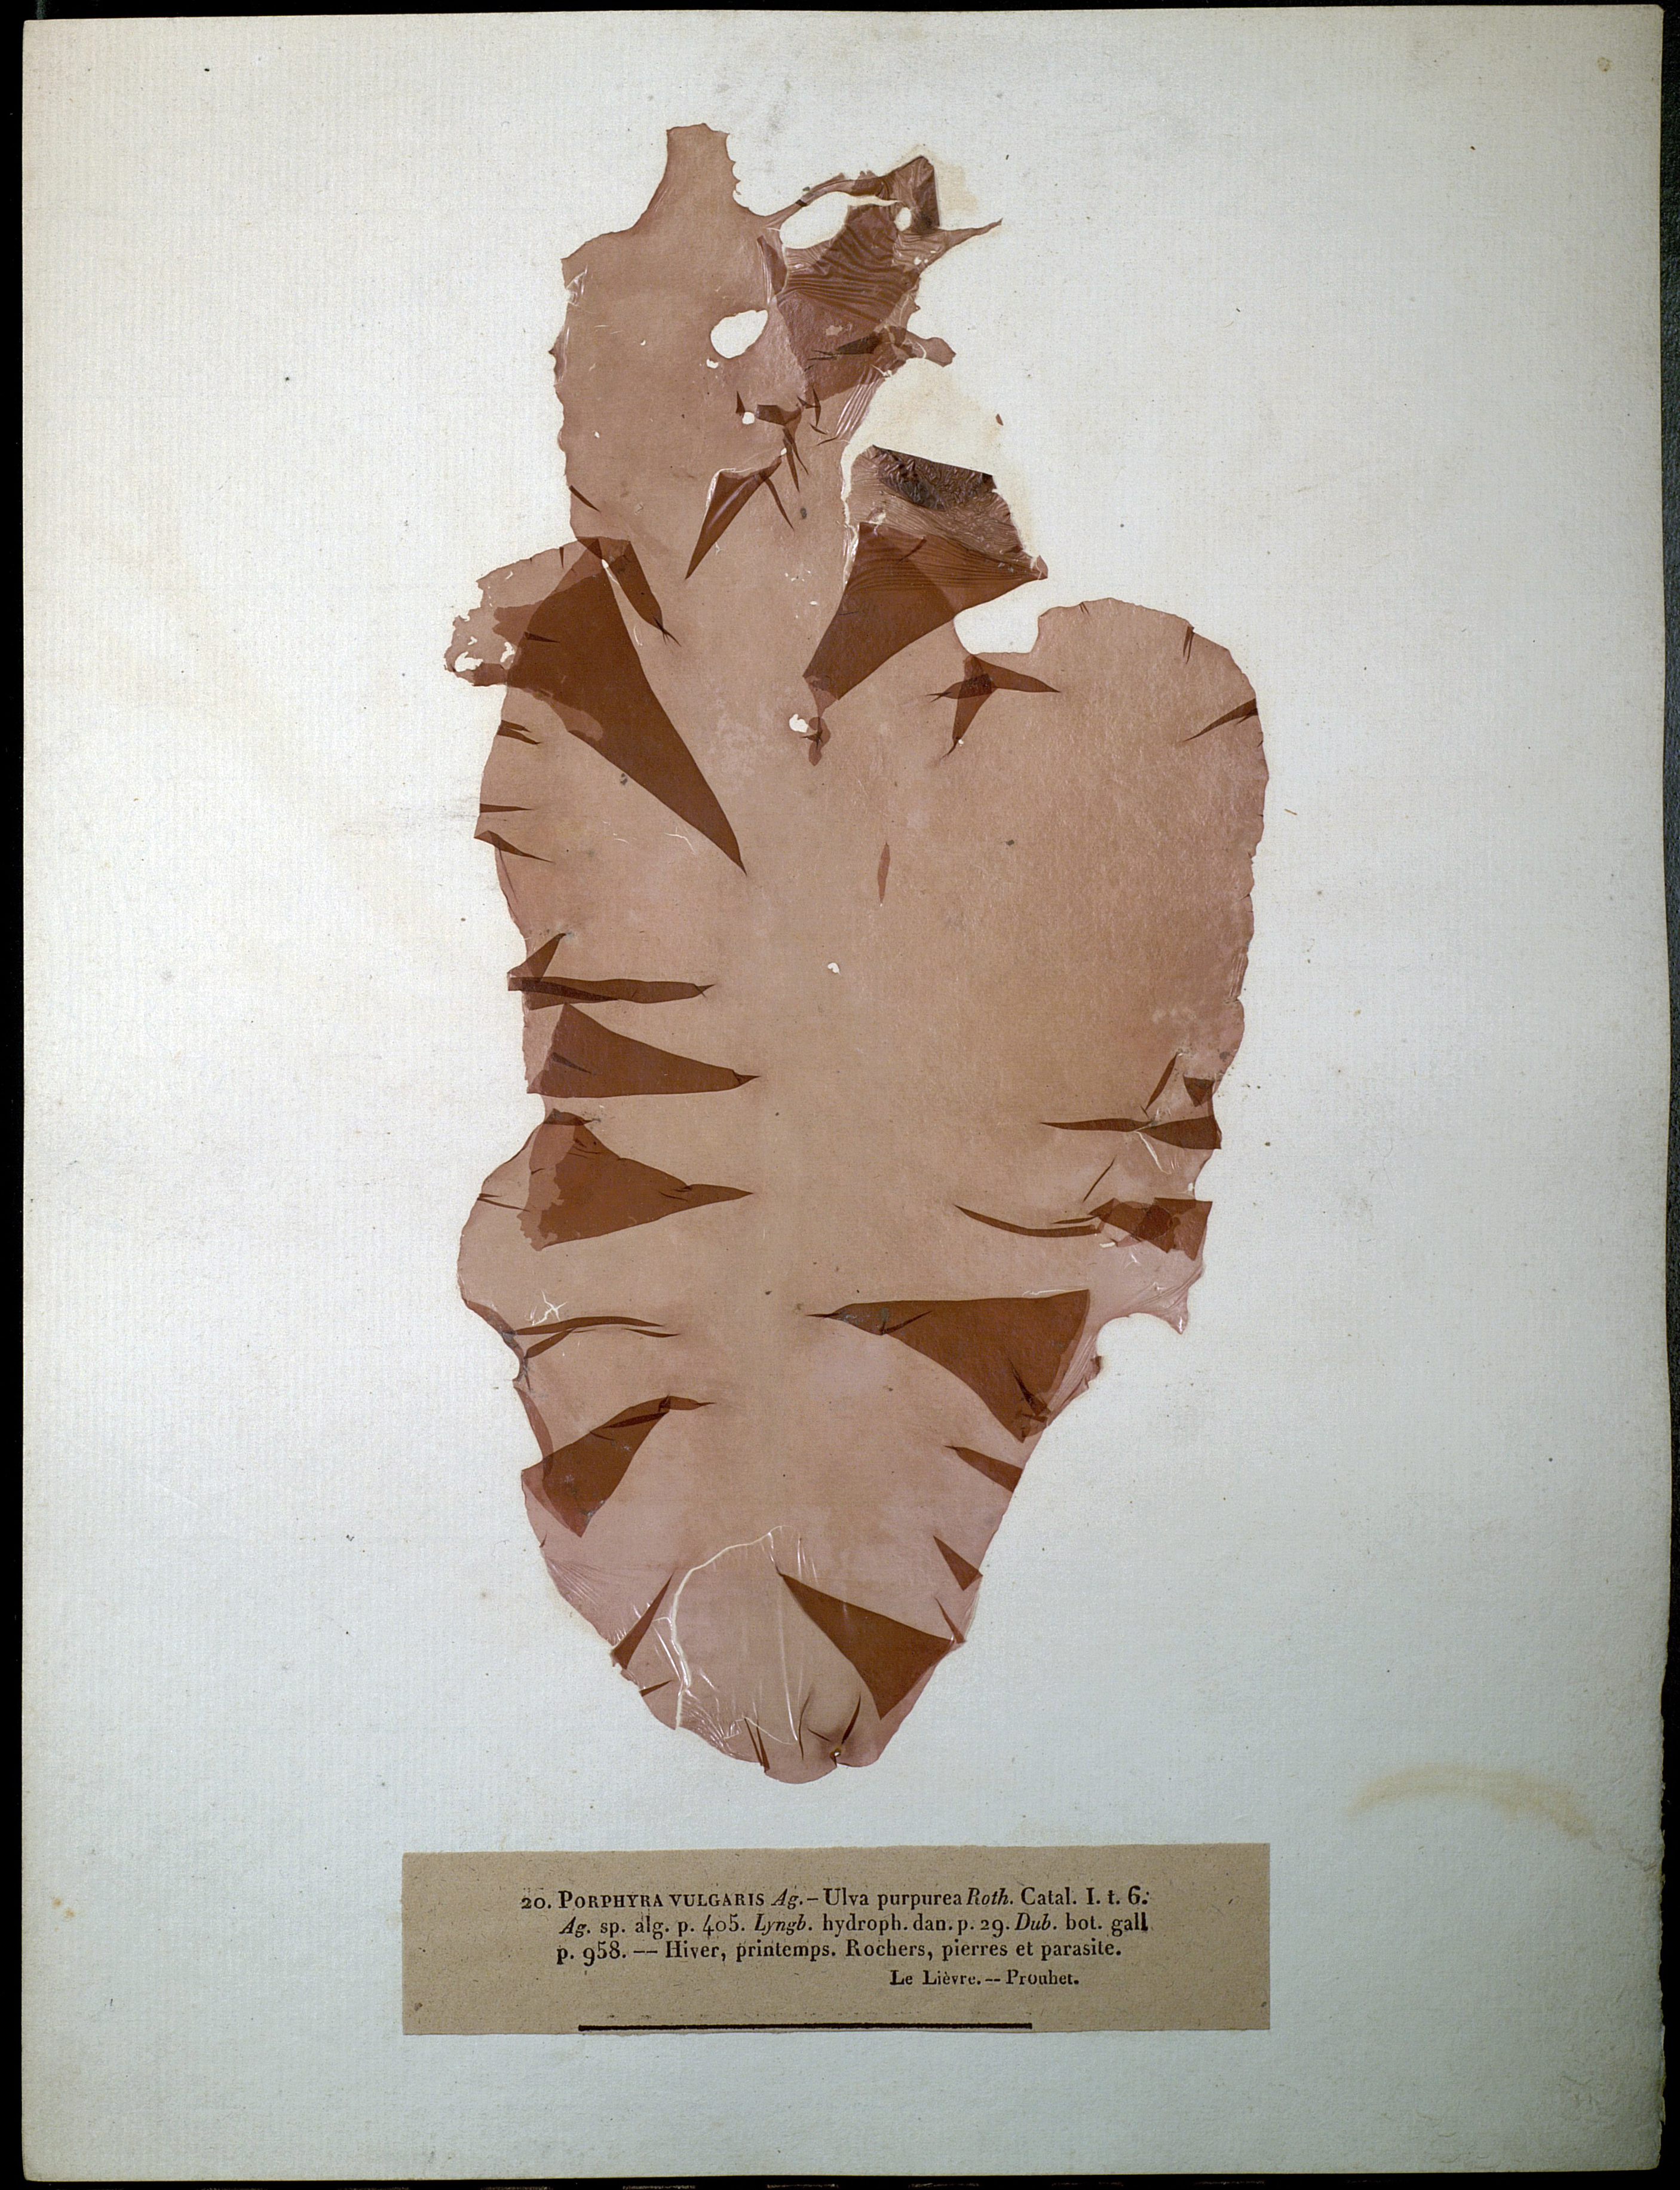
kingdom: Plantae
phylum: Rhodophyta
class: Bangiophyceae
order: Bangiales
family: Bangiaceae
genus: Porphyra
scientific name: Porphyra vulgaris
